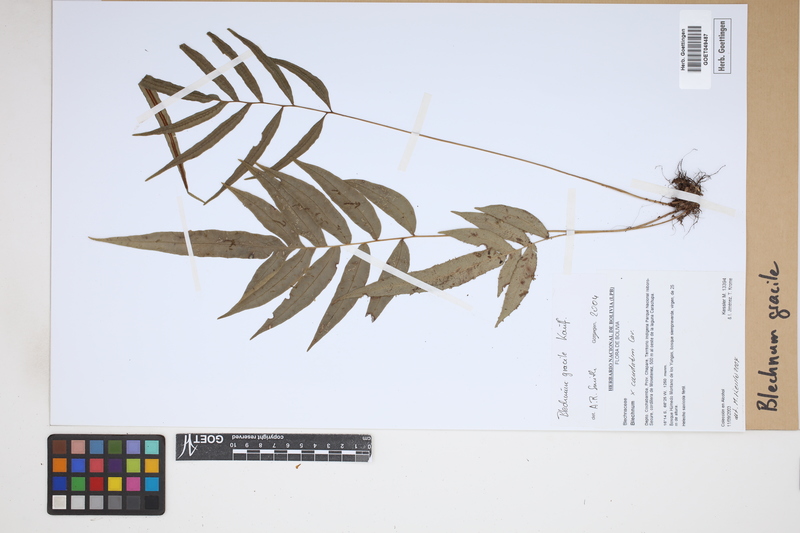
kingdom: Plantae
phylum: Tracheophyta
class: Polypodiopsida
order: Polypodiales
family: Blechnaceae
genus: Blechnum
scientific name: Blechnum gracile
